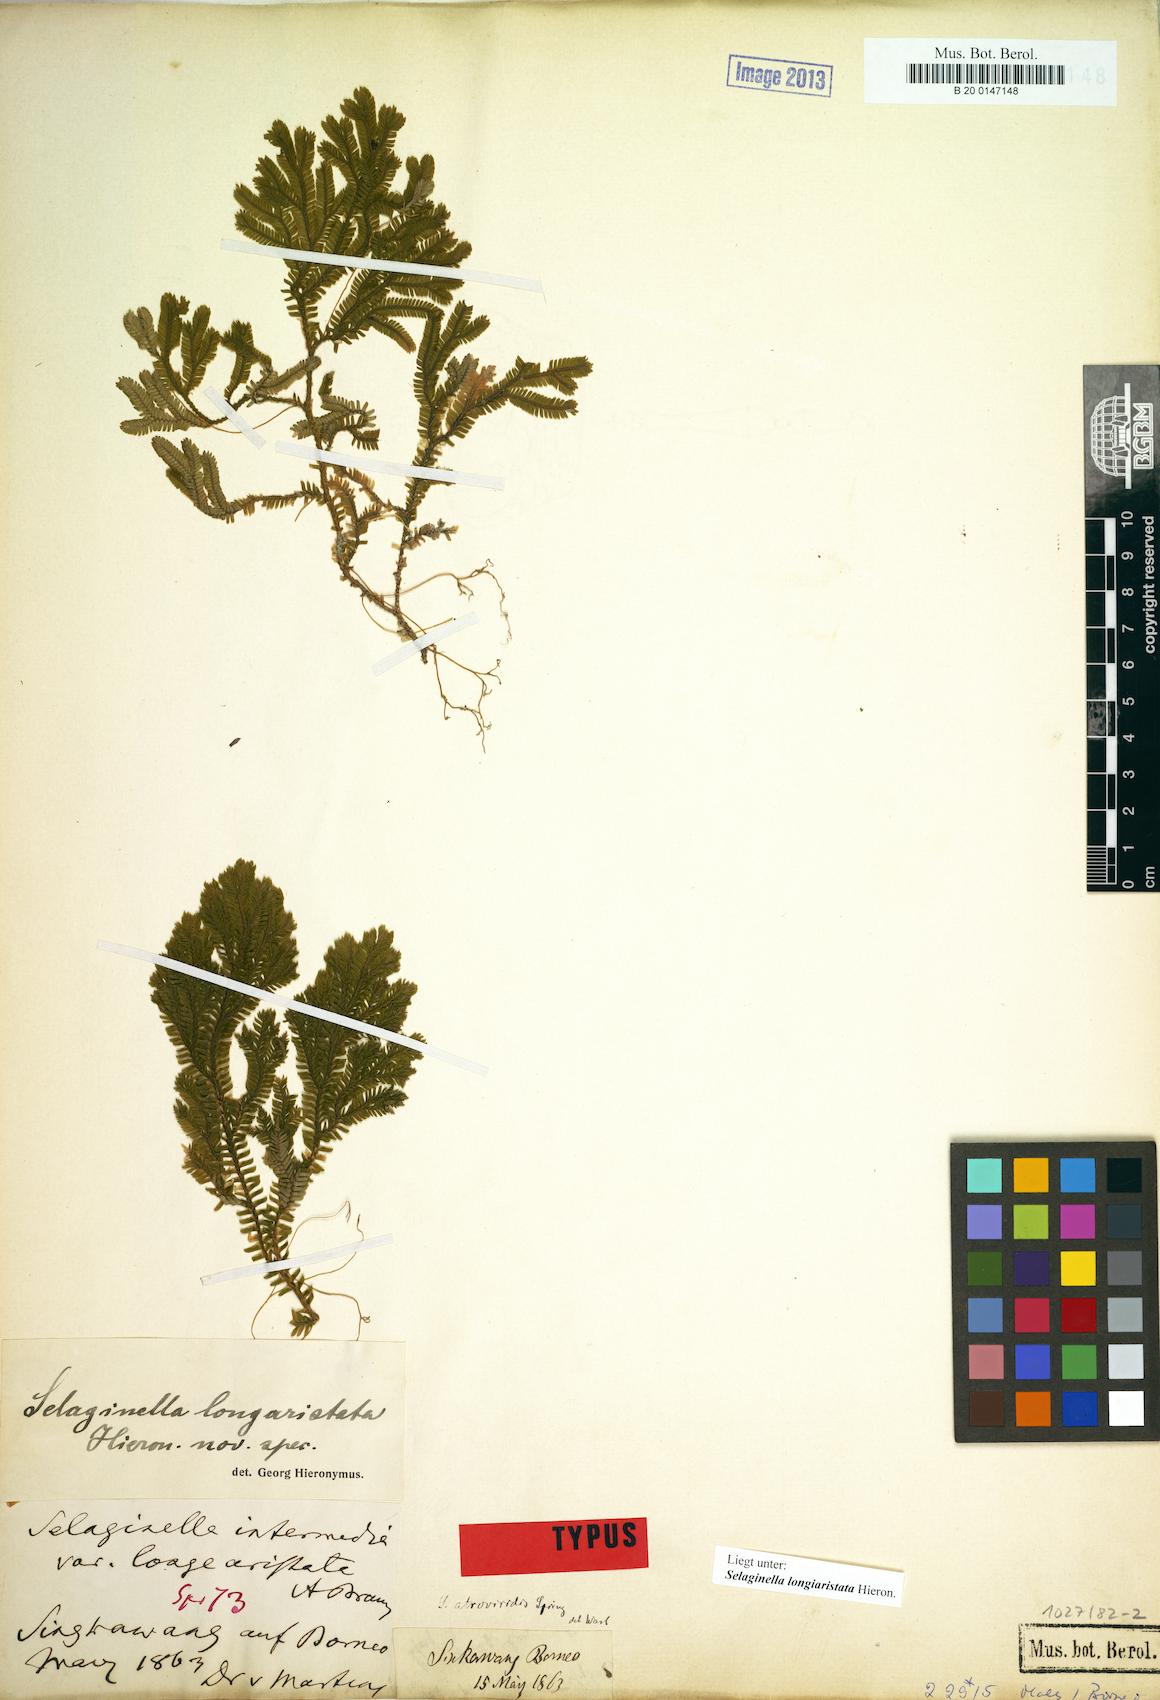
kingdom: Plantae
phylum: Tracheophyta
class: Lycopodiopsida
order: Selaginellales
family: Selaginellaceae
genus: Selaginella
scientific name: Selaginella longiaristata
